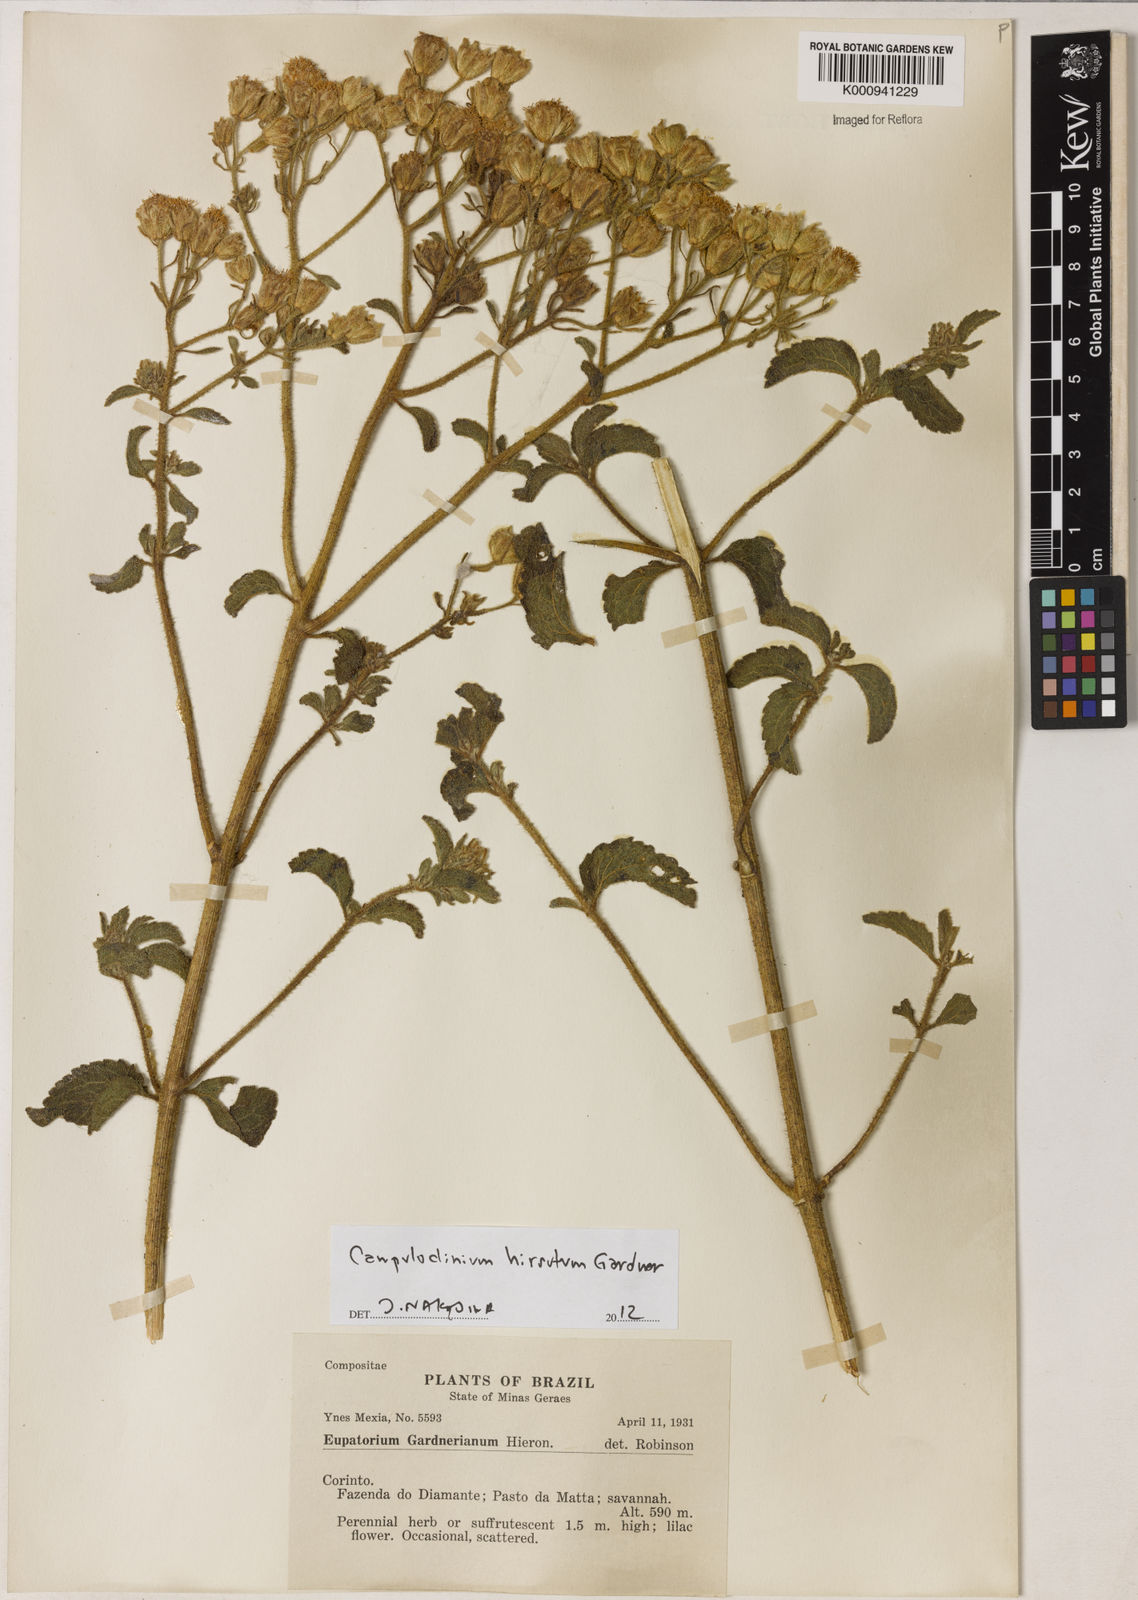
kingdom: Plantae
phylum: Tracheophyta
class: Magnoliopsida
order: Asterales
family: Asteraceae
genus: Campuloclinium
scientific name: Campuloclinium hirsutum
